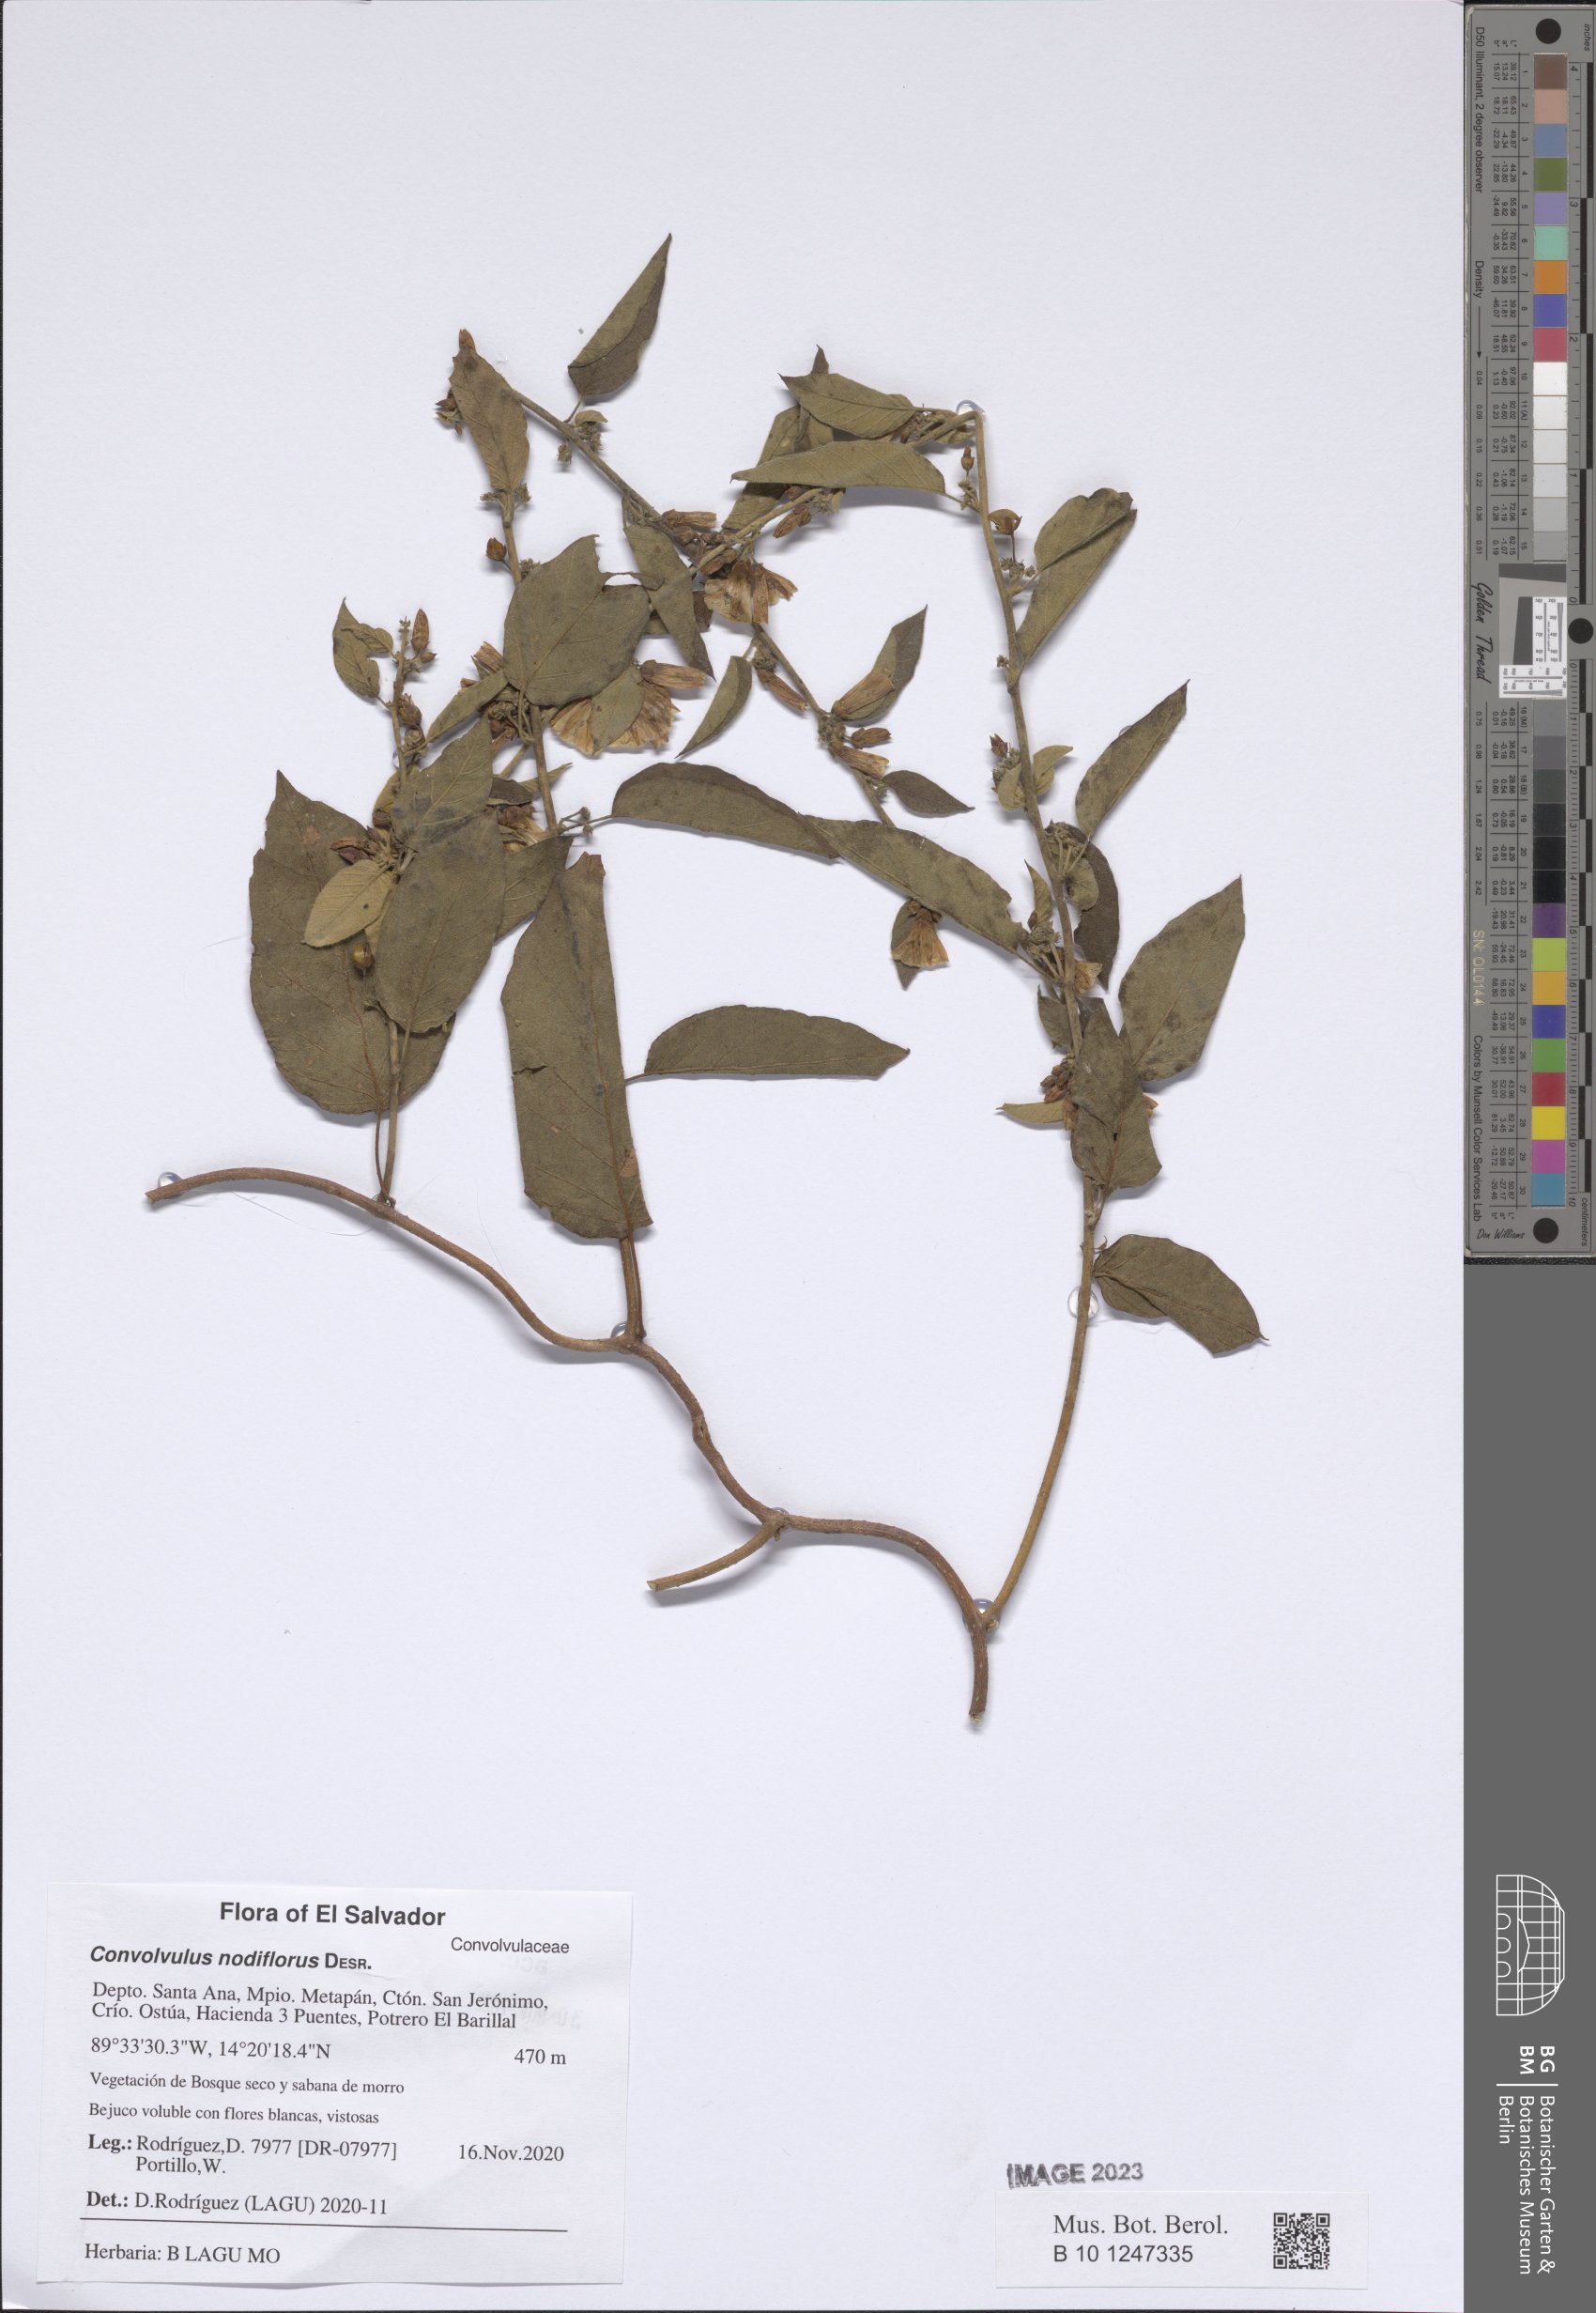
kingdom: Plantae
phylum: Tracheophyta
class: Magnoliopsida
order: Solanales
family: Convolvulaceae
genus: Jacquemontia
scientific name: Jacquemontia nodiflora
